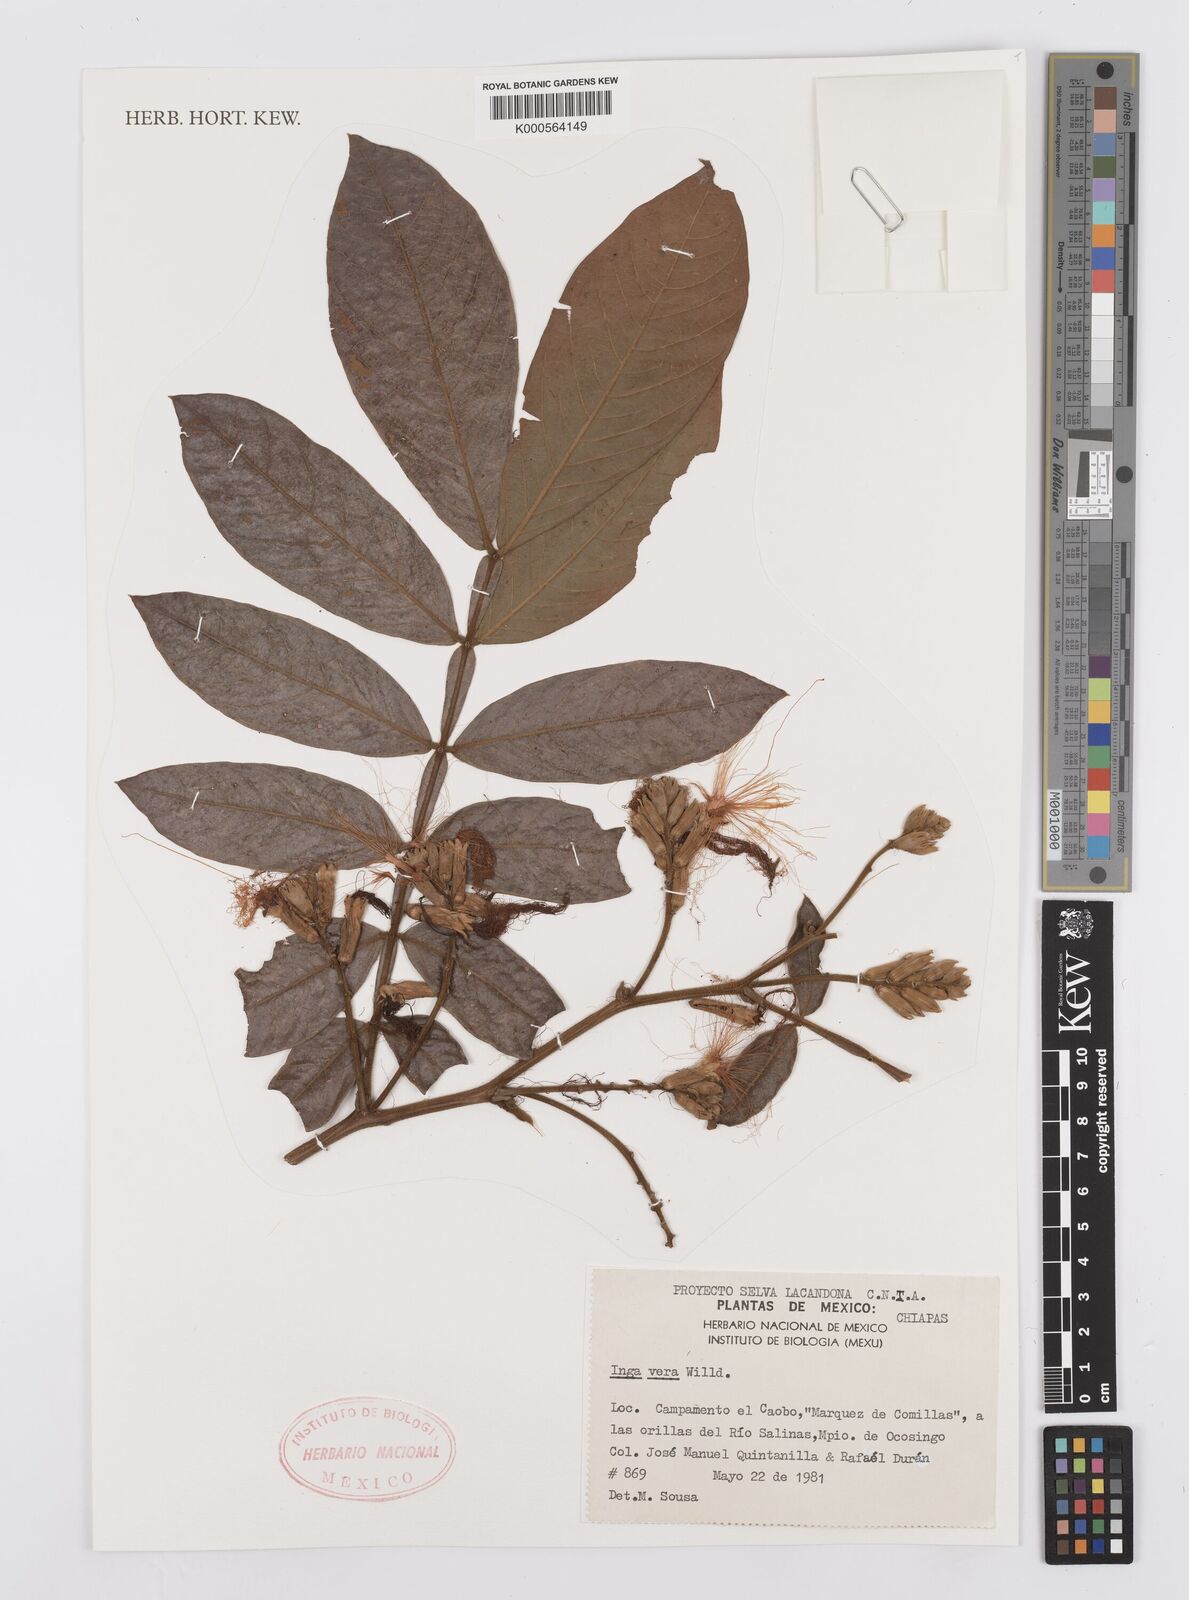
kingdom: Plantae
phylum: Tracheophyta
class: Magnoliopsida
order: Fabales
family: Fabaceae
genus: Inga
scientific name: Inga vera
